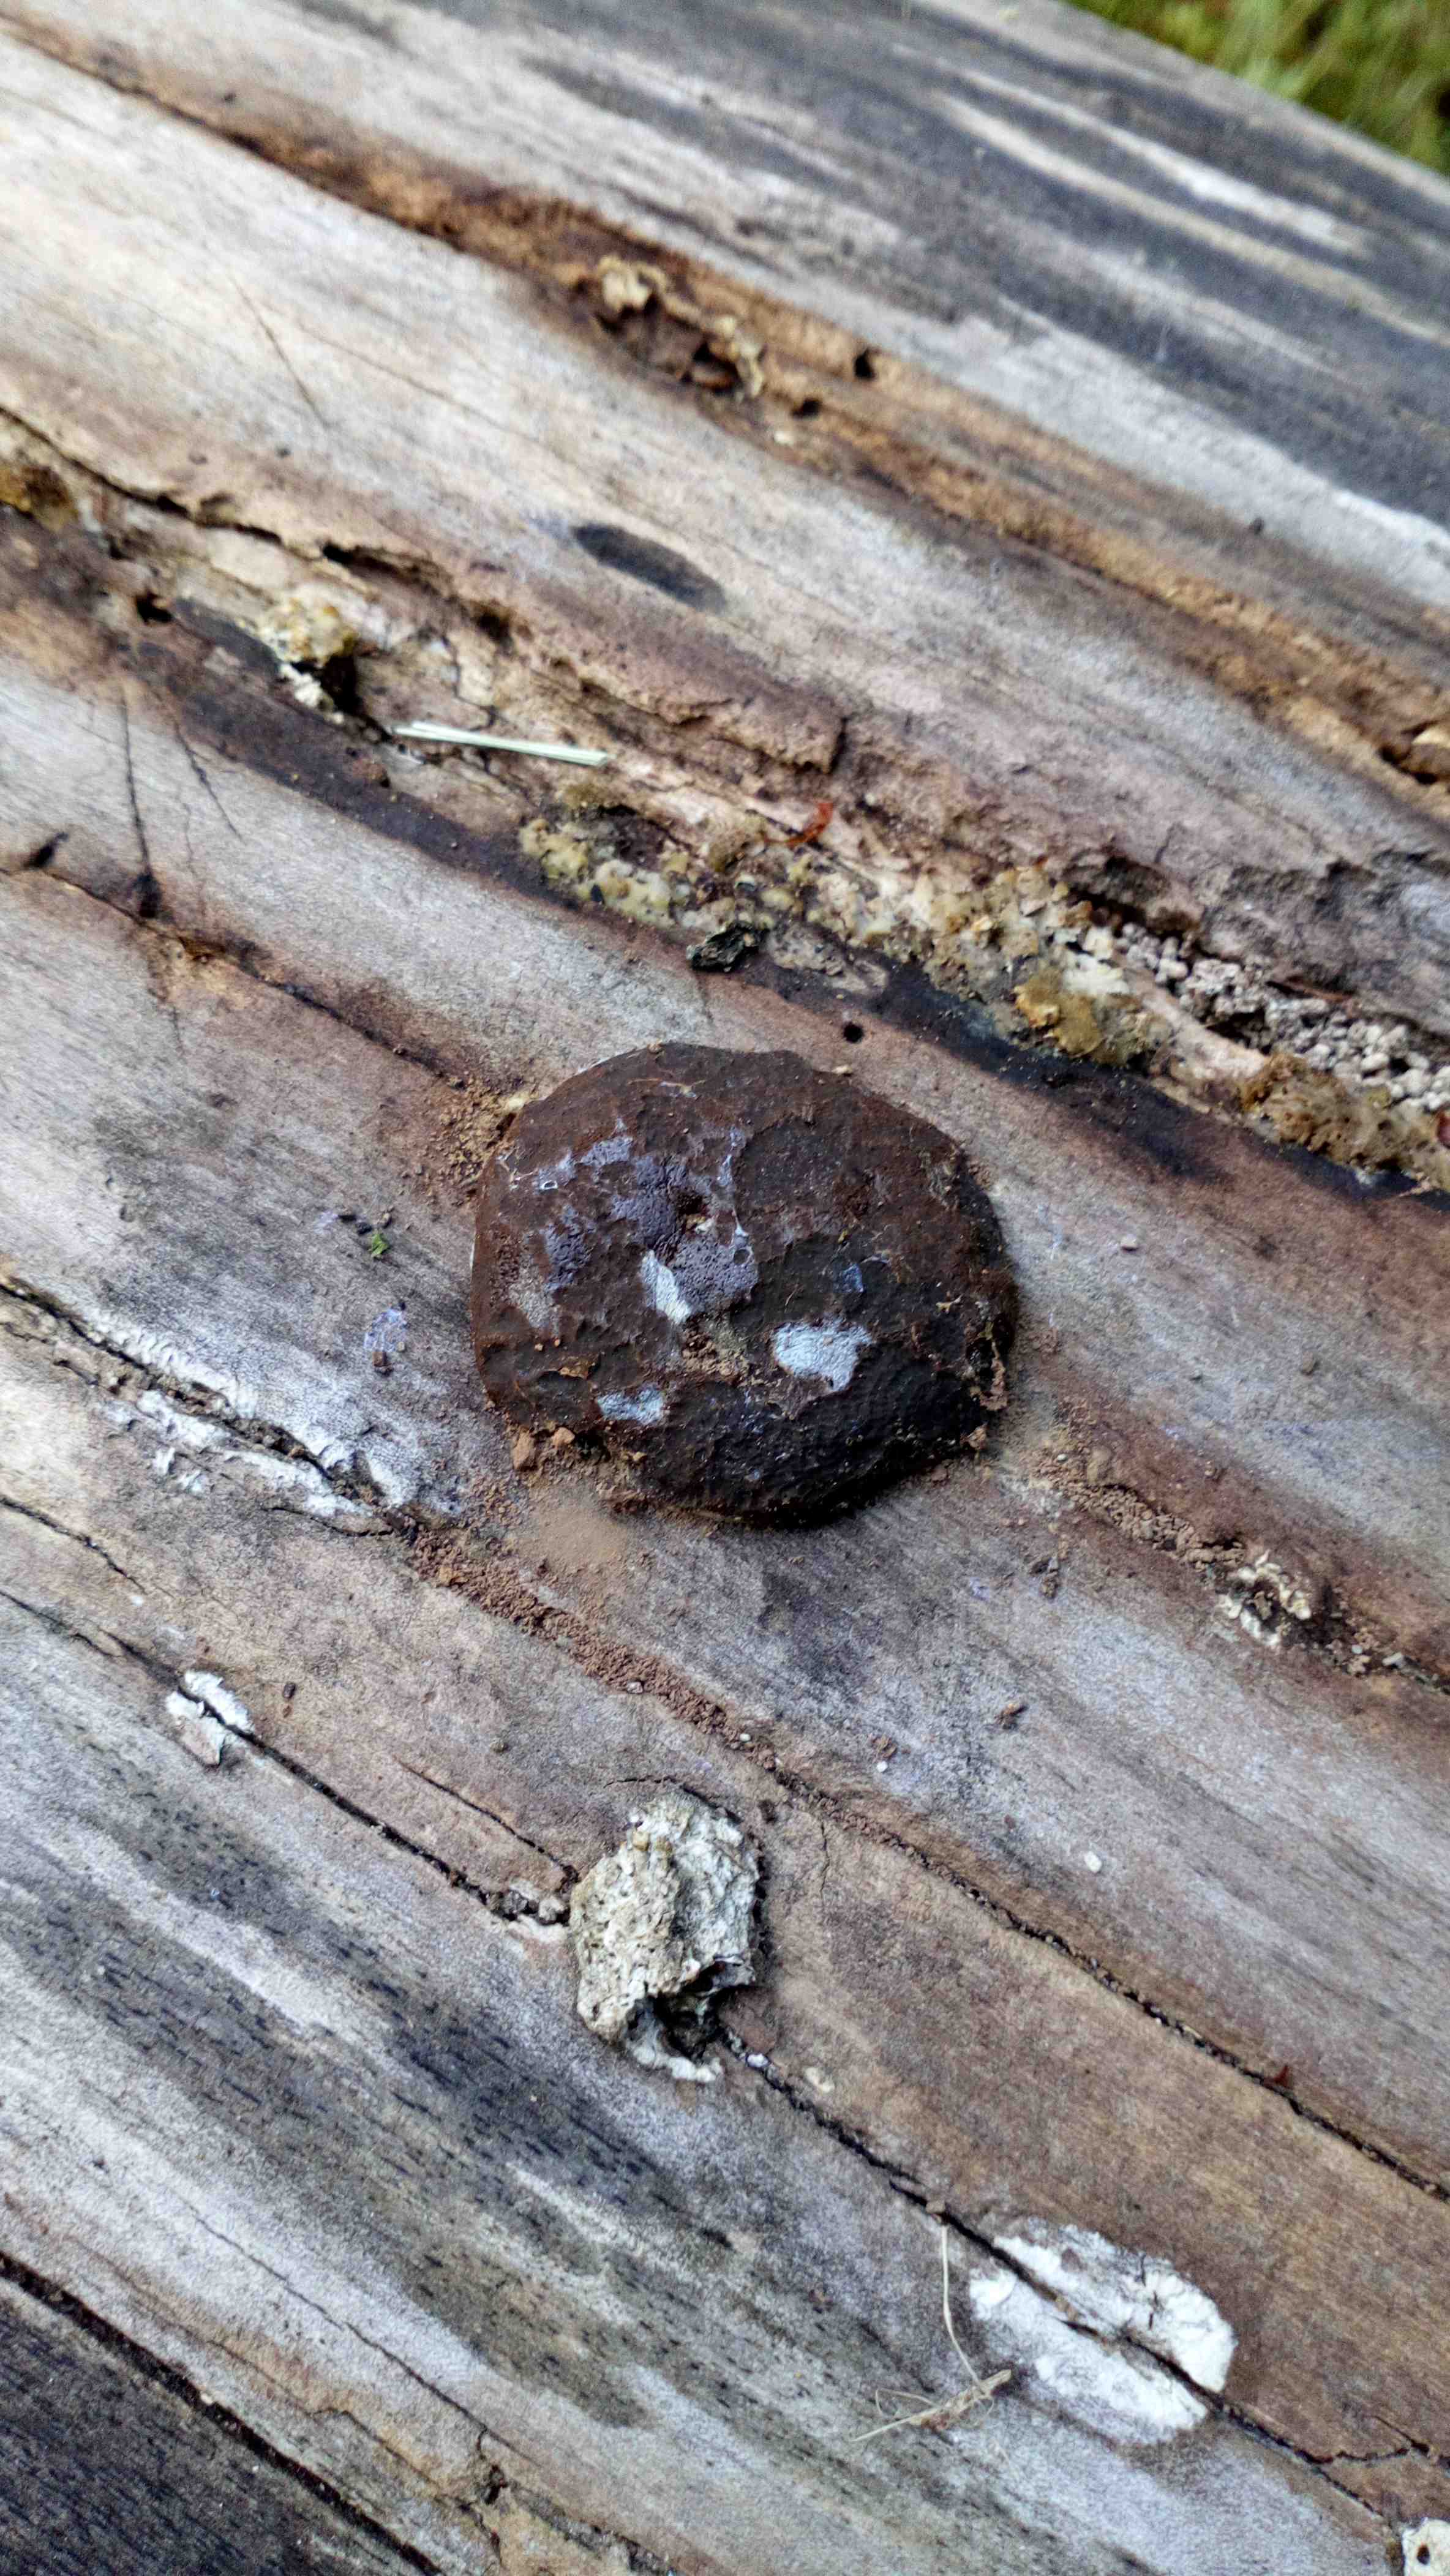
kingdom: Protozoa
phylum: Mycetozoa
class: Myxomycetes
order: Cribrariales
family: Tubiferaceae
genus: Reticularia
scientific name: Reticularia lycoperdon
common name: skinnende støvpude
